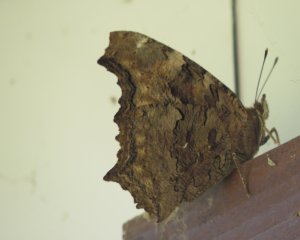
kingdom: Animalia
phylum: Arthropoda
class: Insecta
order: Lepidoptera
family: Nymphalidae
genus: Polygonia
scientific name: Polygonia vaualbum
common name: Compton Tortoiseshell
